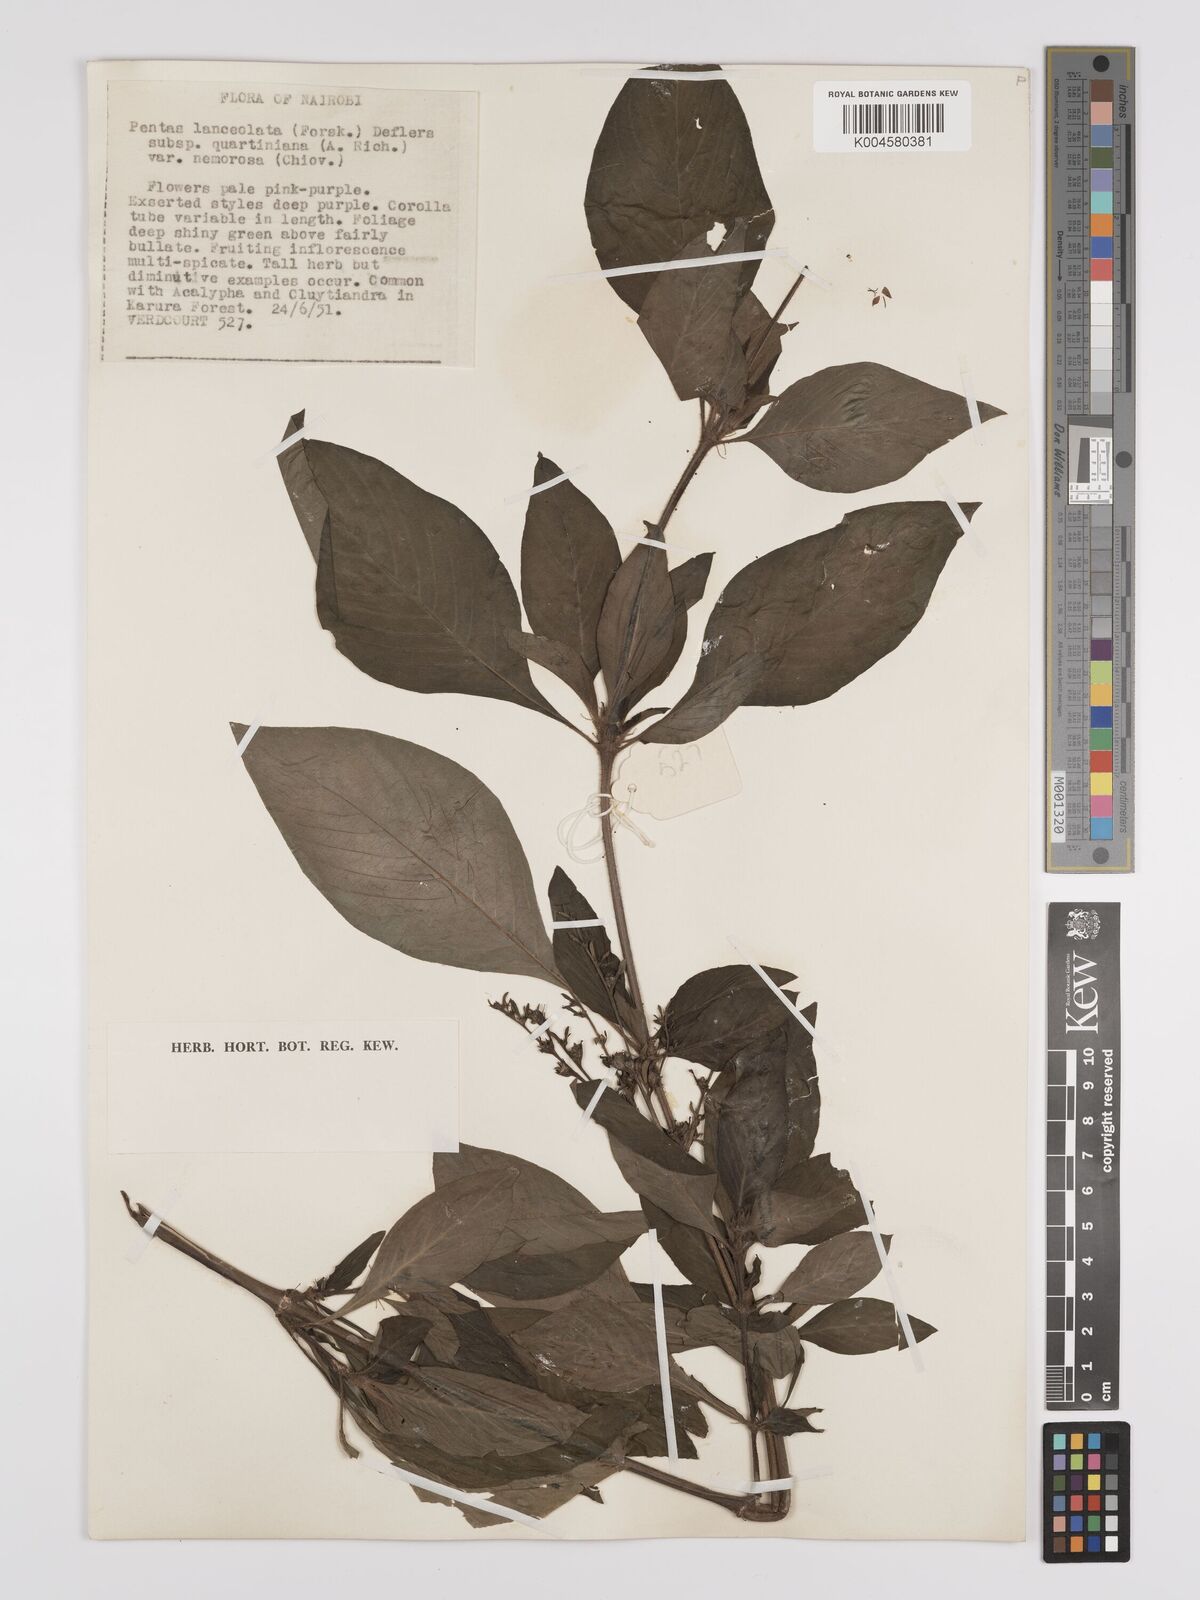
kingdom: Plantae
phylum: Tracheophyta
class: Magnoliopsida
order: Gentianales
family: Rubiaceae
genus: Pentas
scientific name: Pentas lanceolata
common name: Egyptian starcluster
